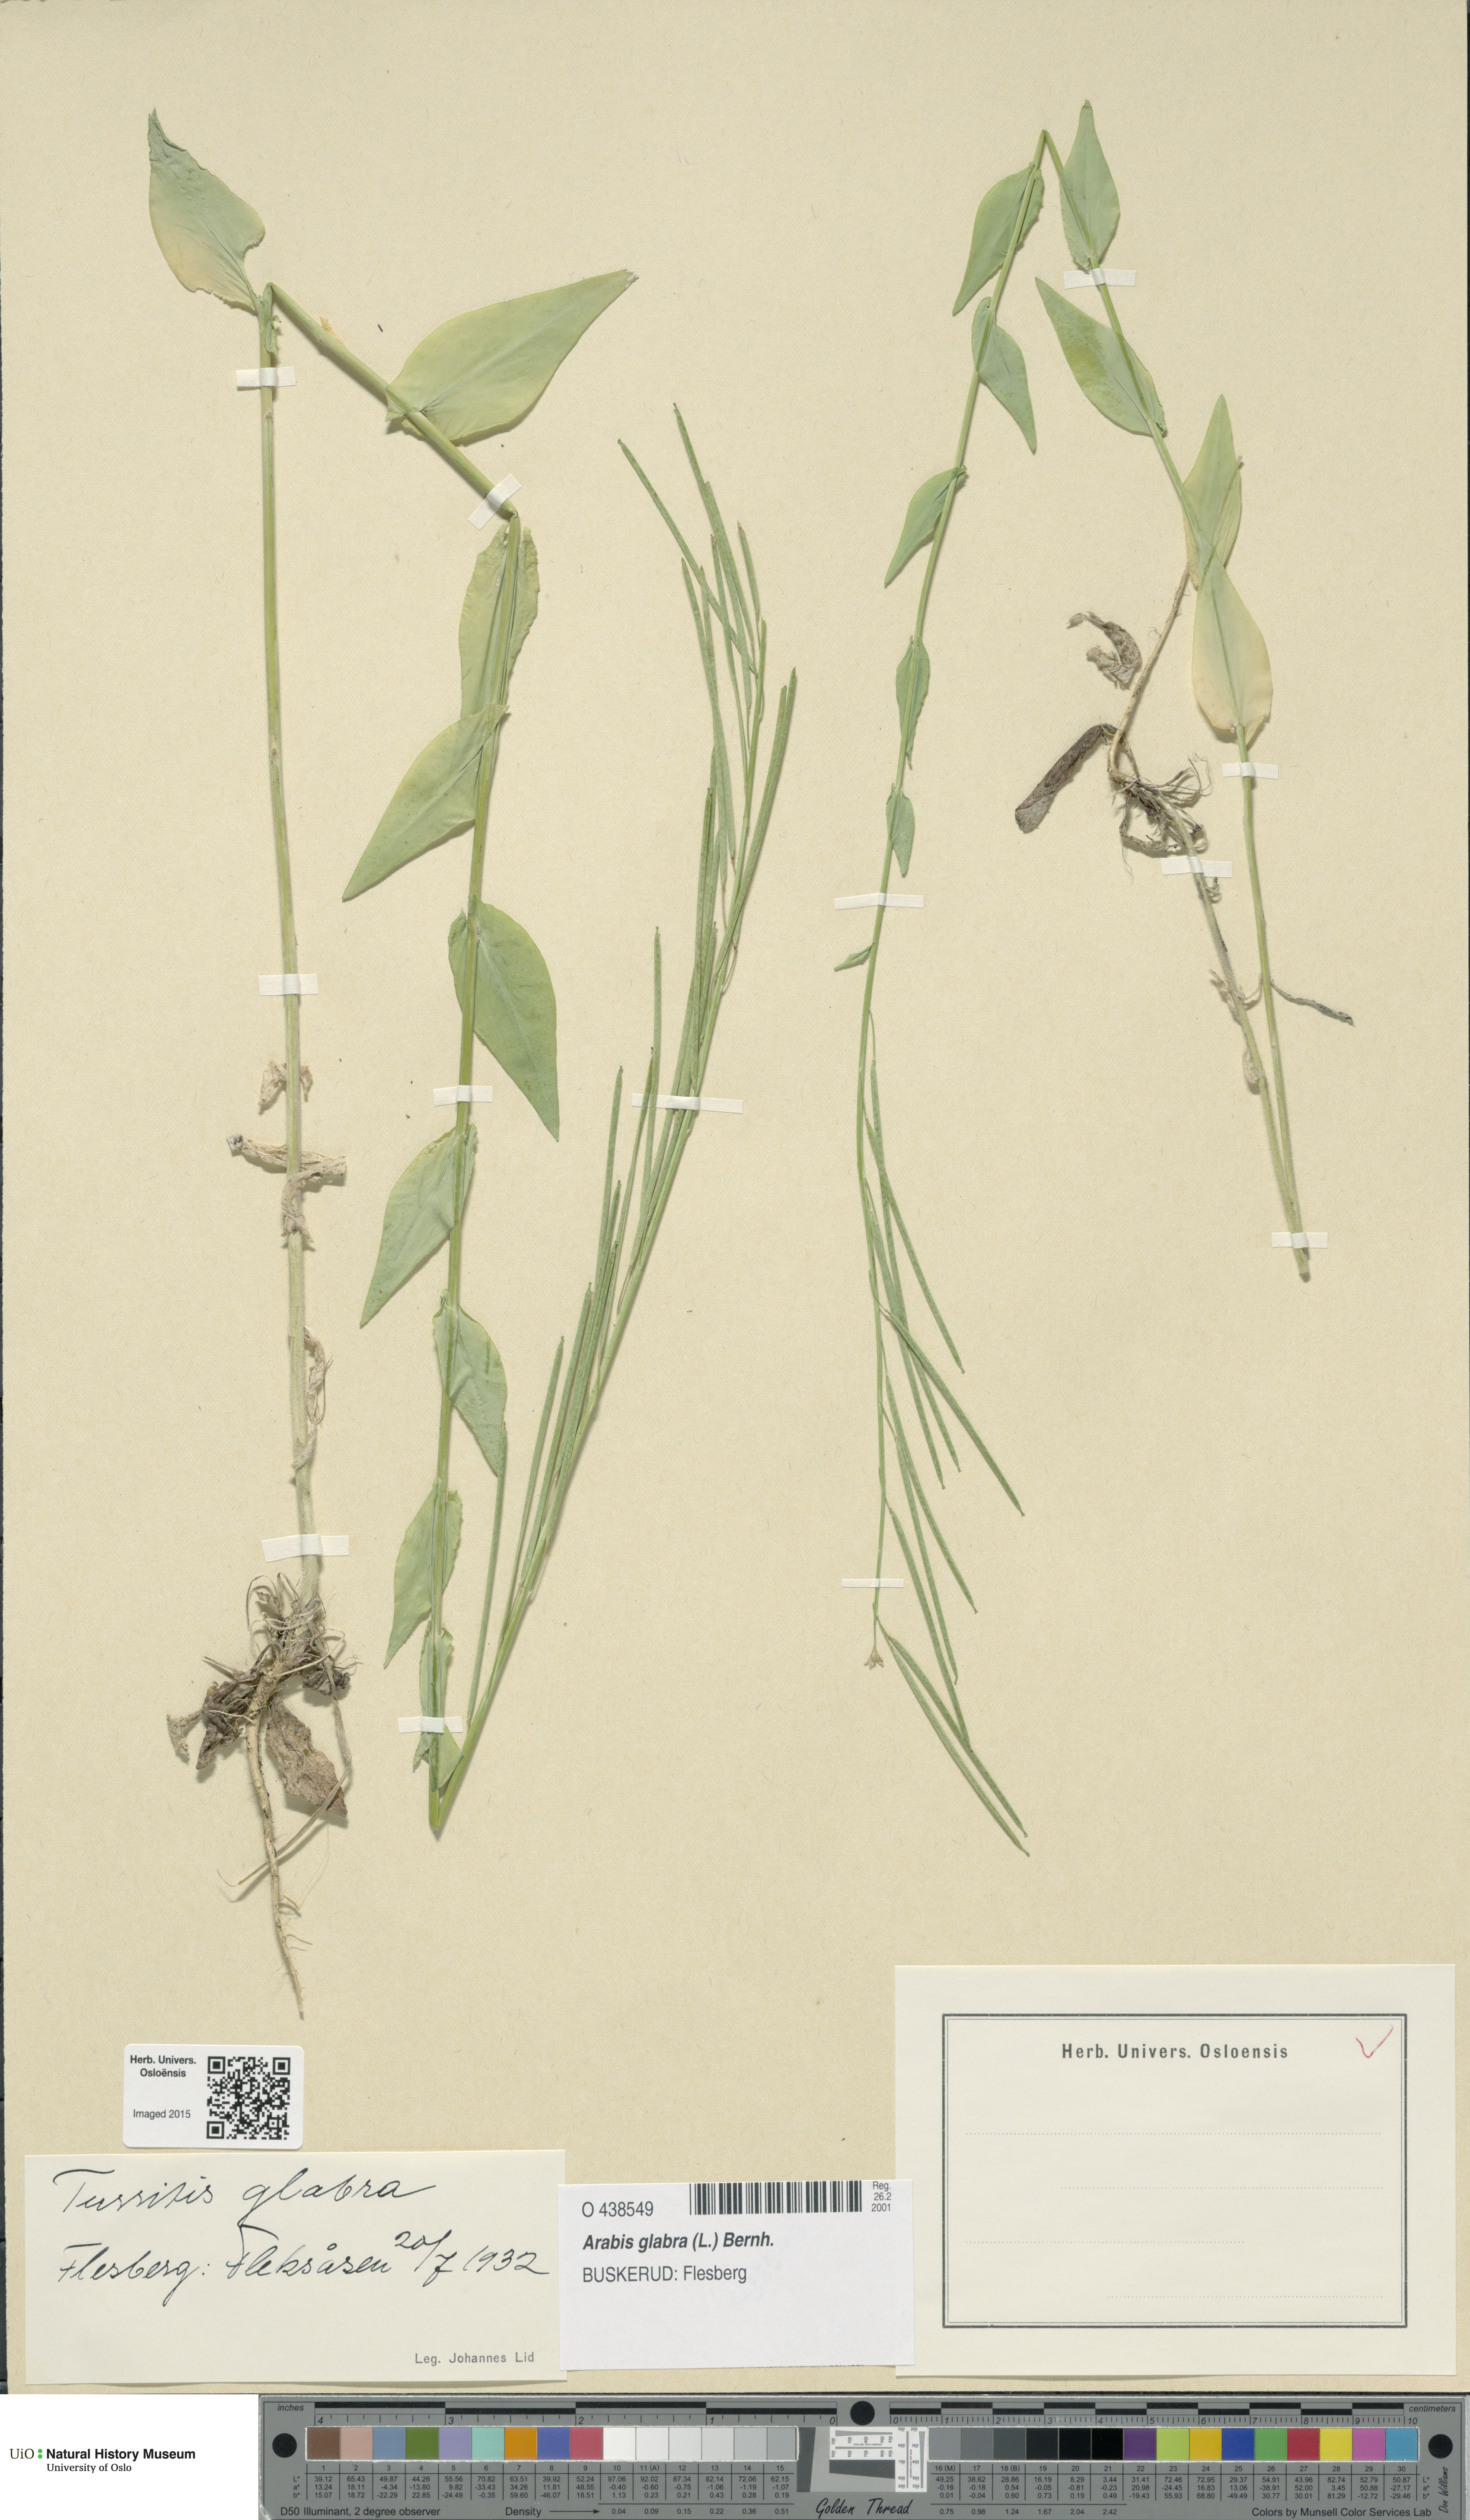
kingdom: Plantae
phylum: Tracheophyta
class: Magnoliopsida
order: Brassicales
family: Brassicaceae
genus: Turritis
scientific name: Turritis glabra
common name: Tower rockcress
